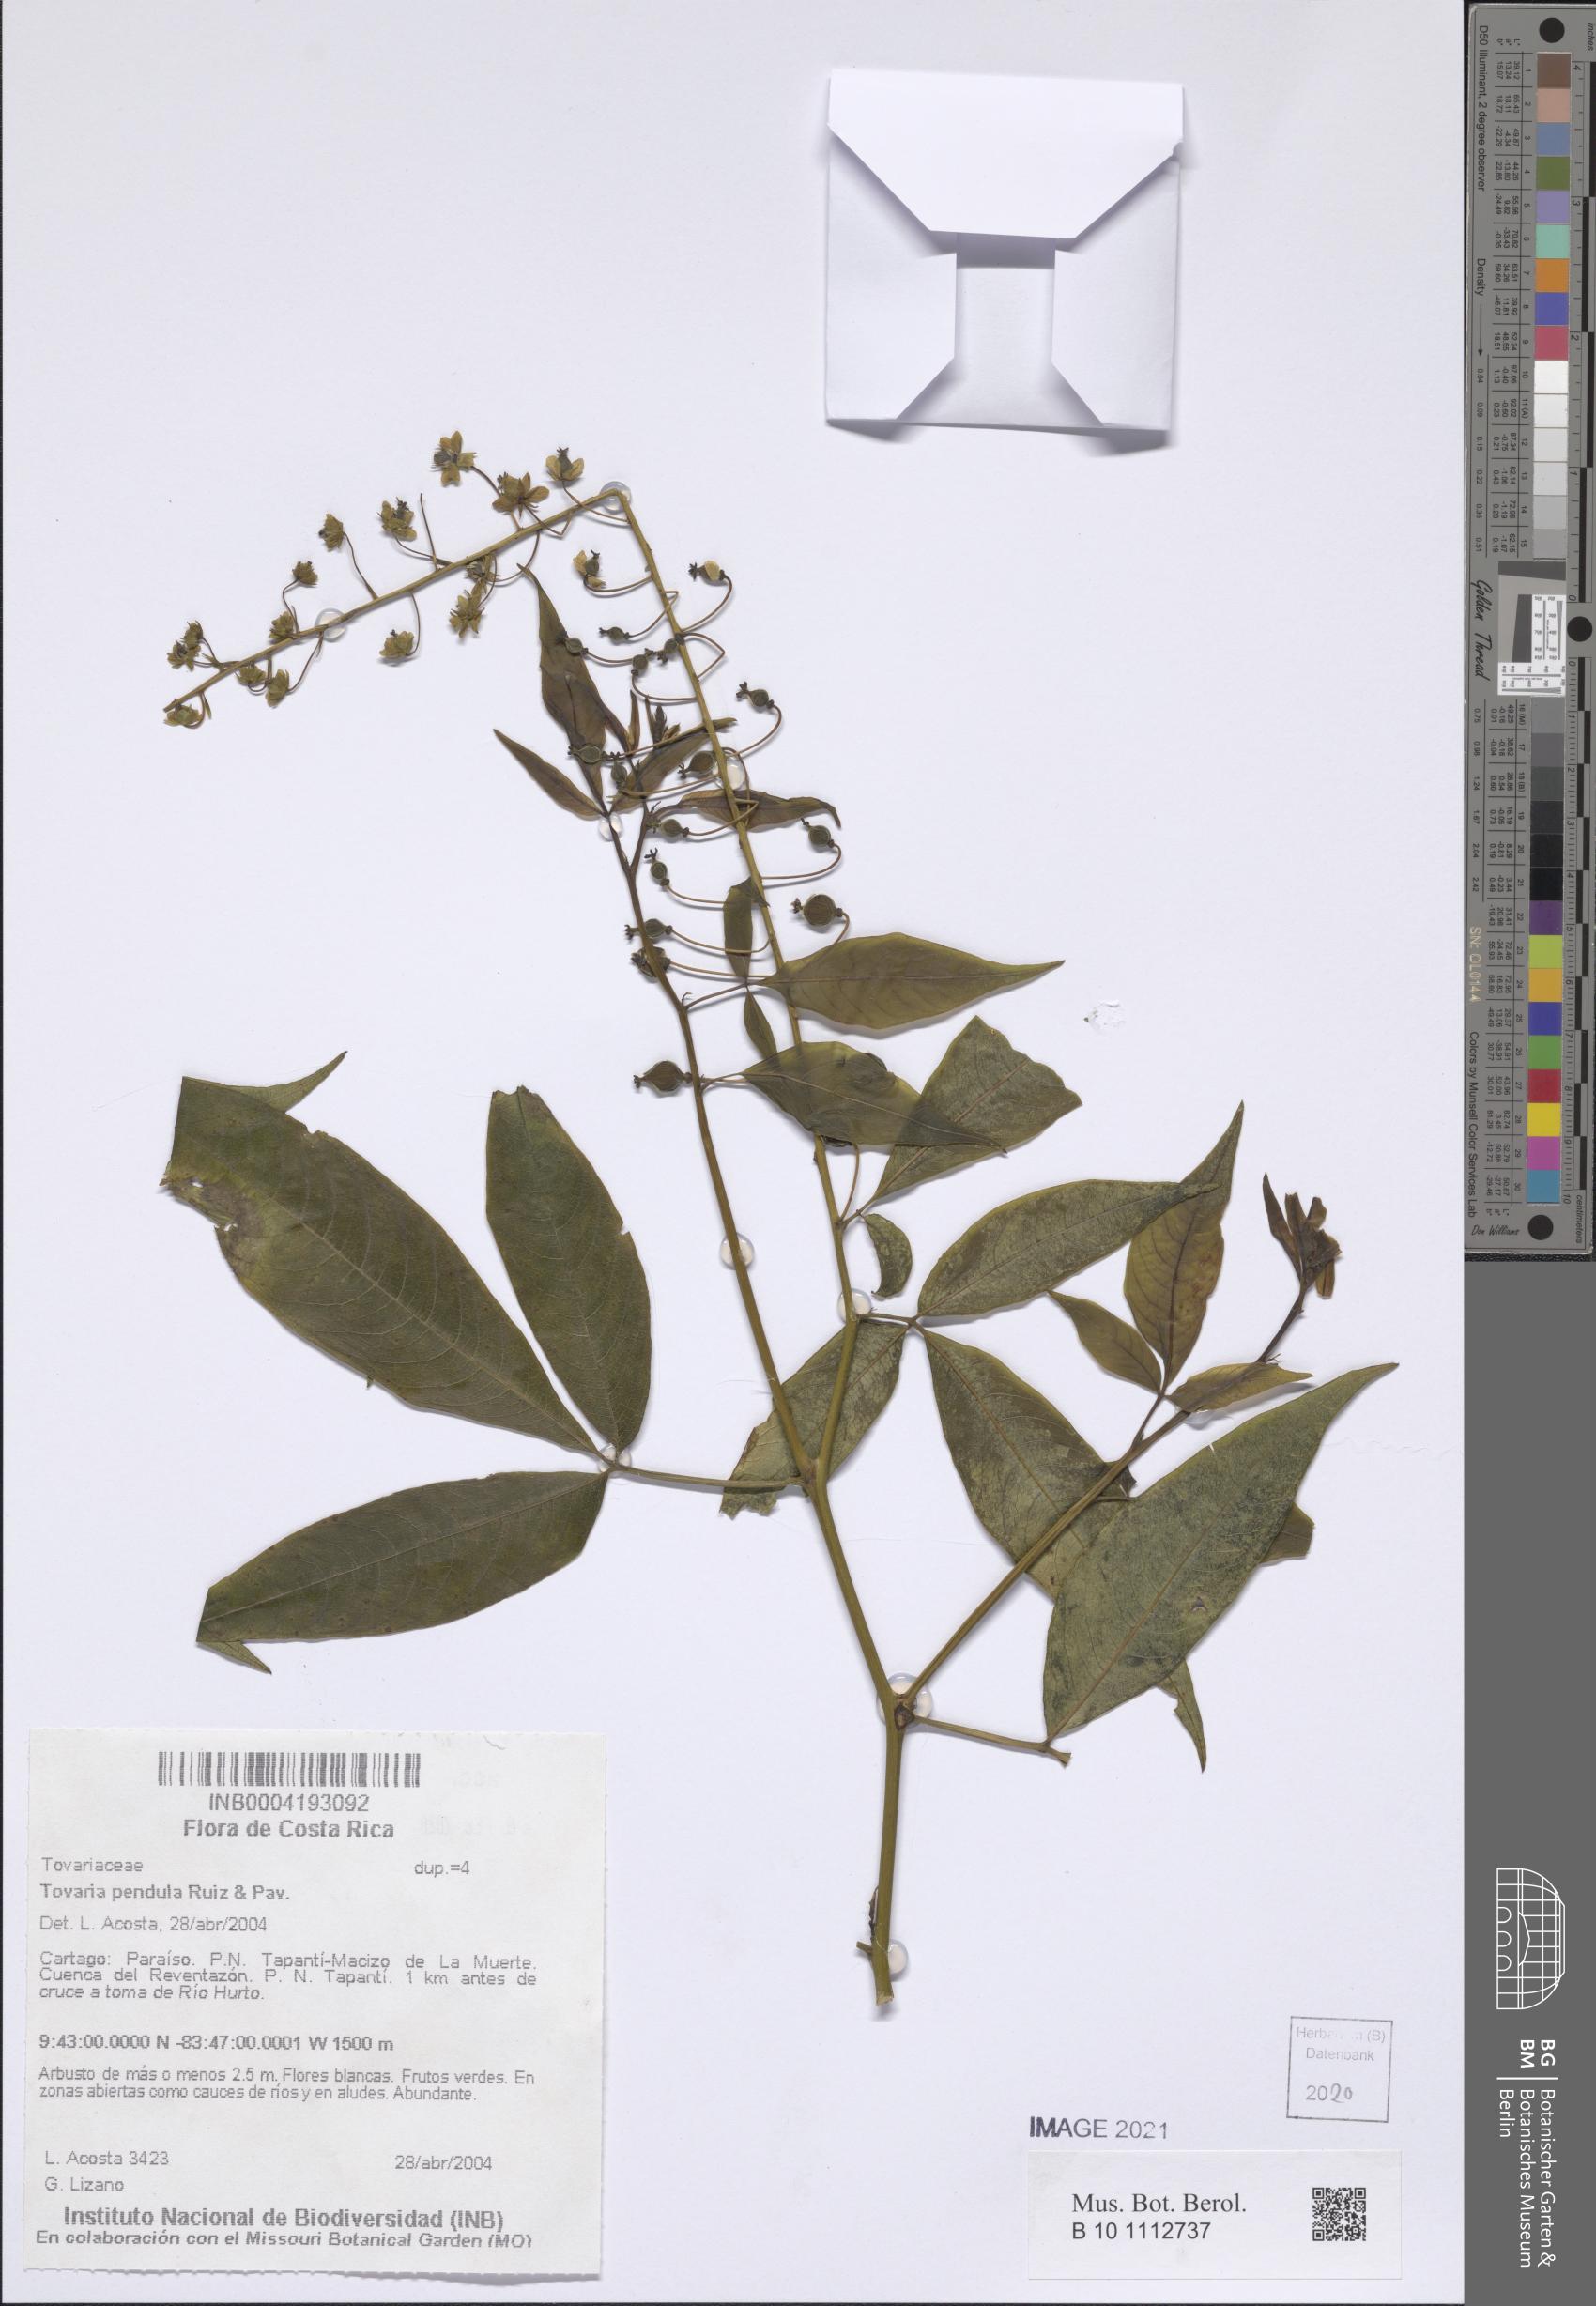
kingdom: Plantae
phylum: Tracheophyta
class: Magnoliopsida
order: Brassicales
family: Tovariaceae
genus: Tovaria
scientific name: Tovaria pendula
